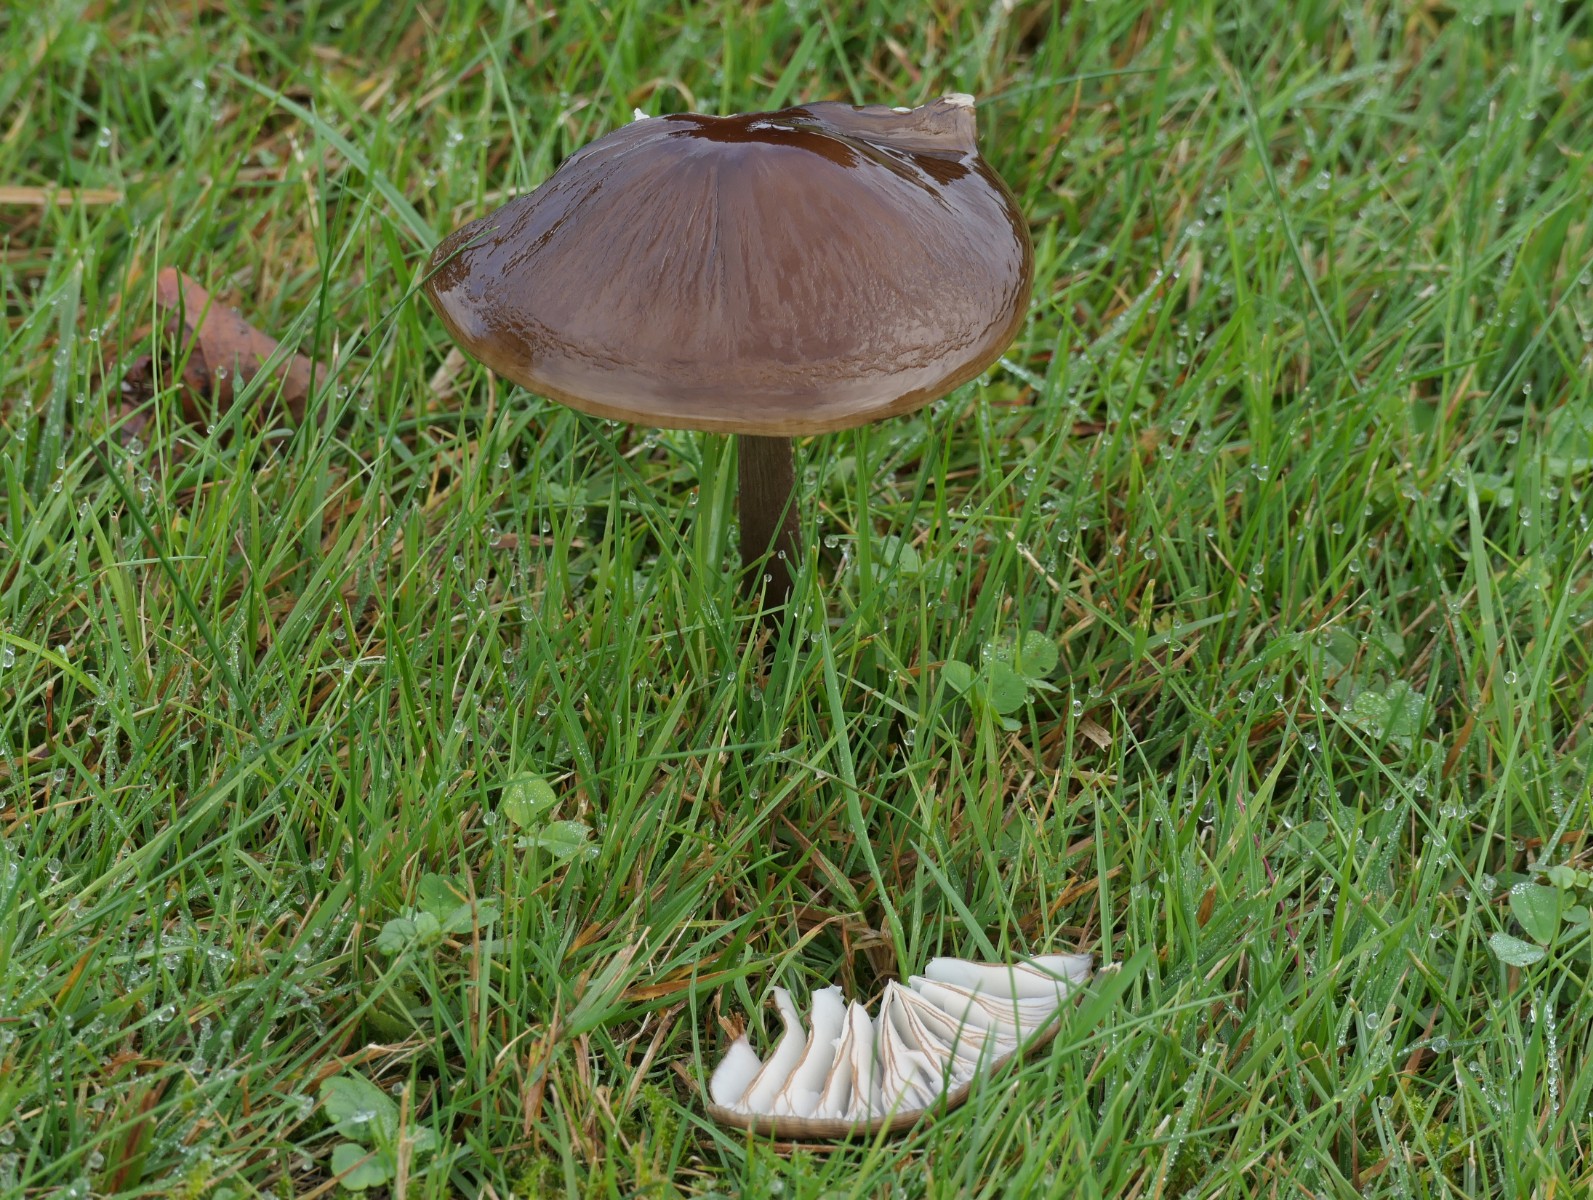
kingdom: Fungi
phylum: Basidiomycota
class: Agaricomycetes
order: Agaricales
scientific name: Agaricales
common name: champignonordenen
